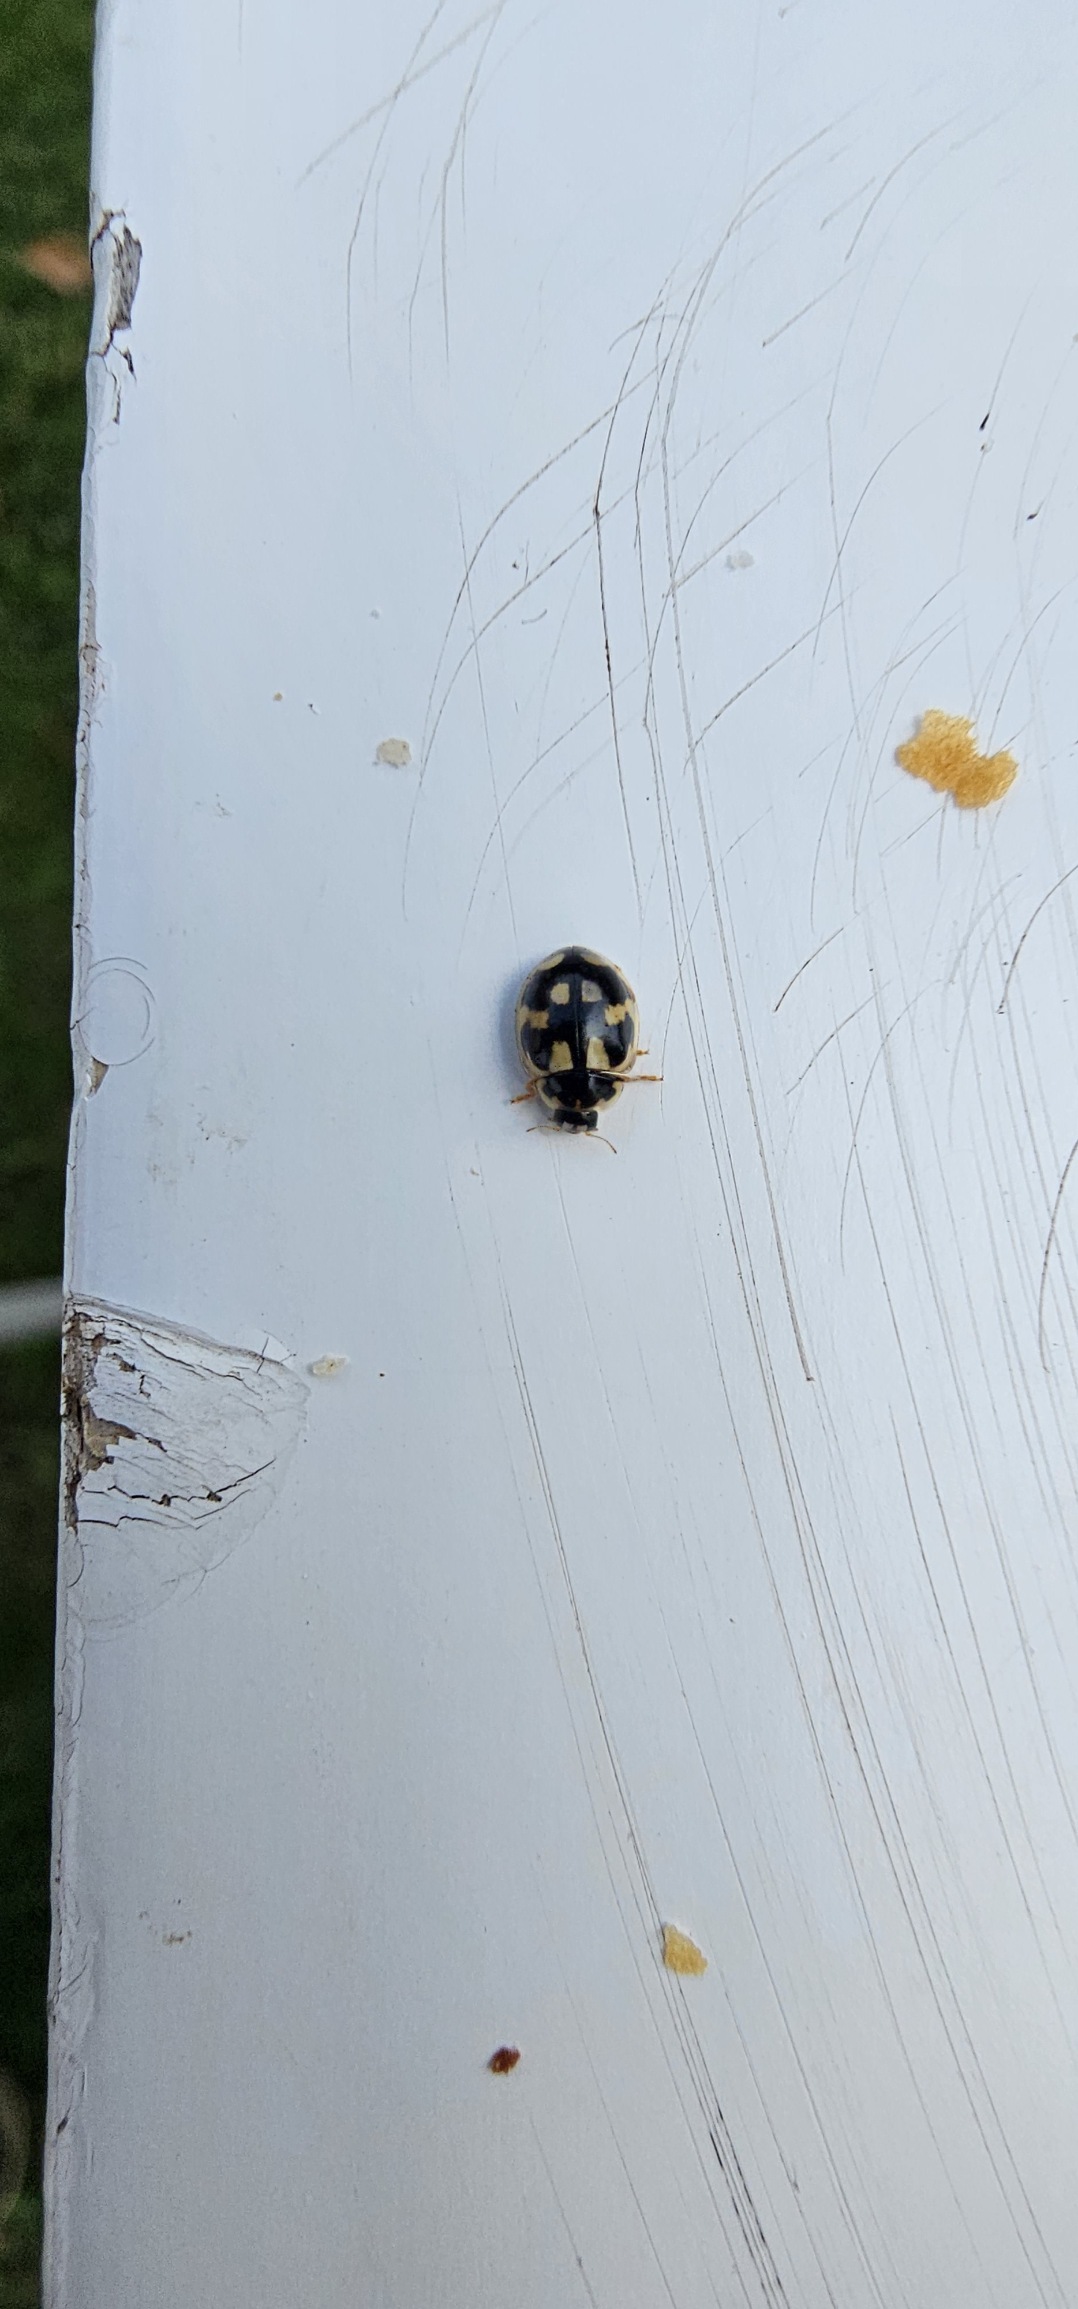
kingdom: Animalia
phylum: Arthropoda
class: Insecta
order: Coleoptera
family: Coccinellidae
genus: Propylaea
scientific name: Propylaea quatuordecimpunctata
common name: Skakbræt
